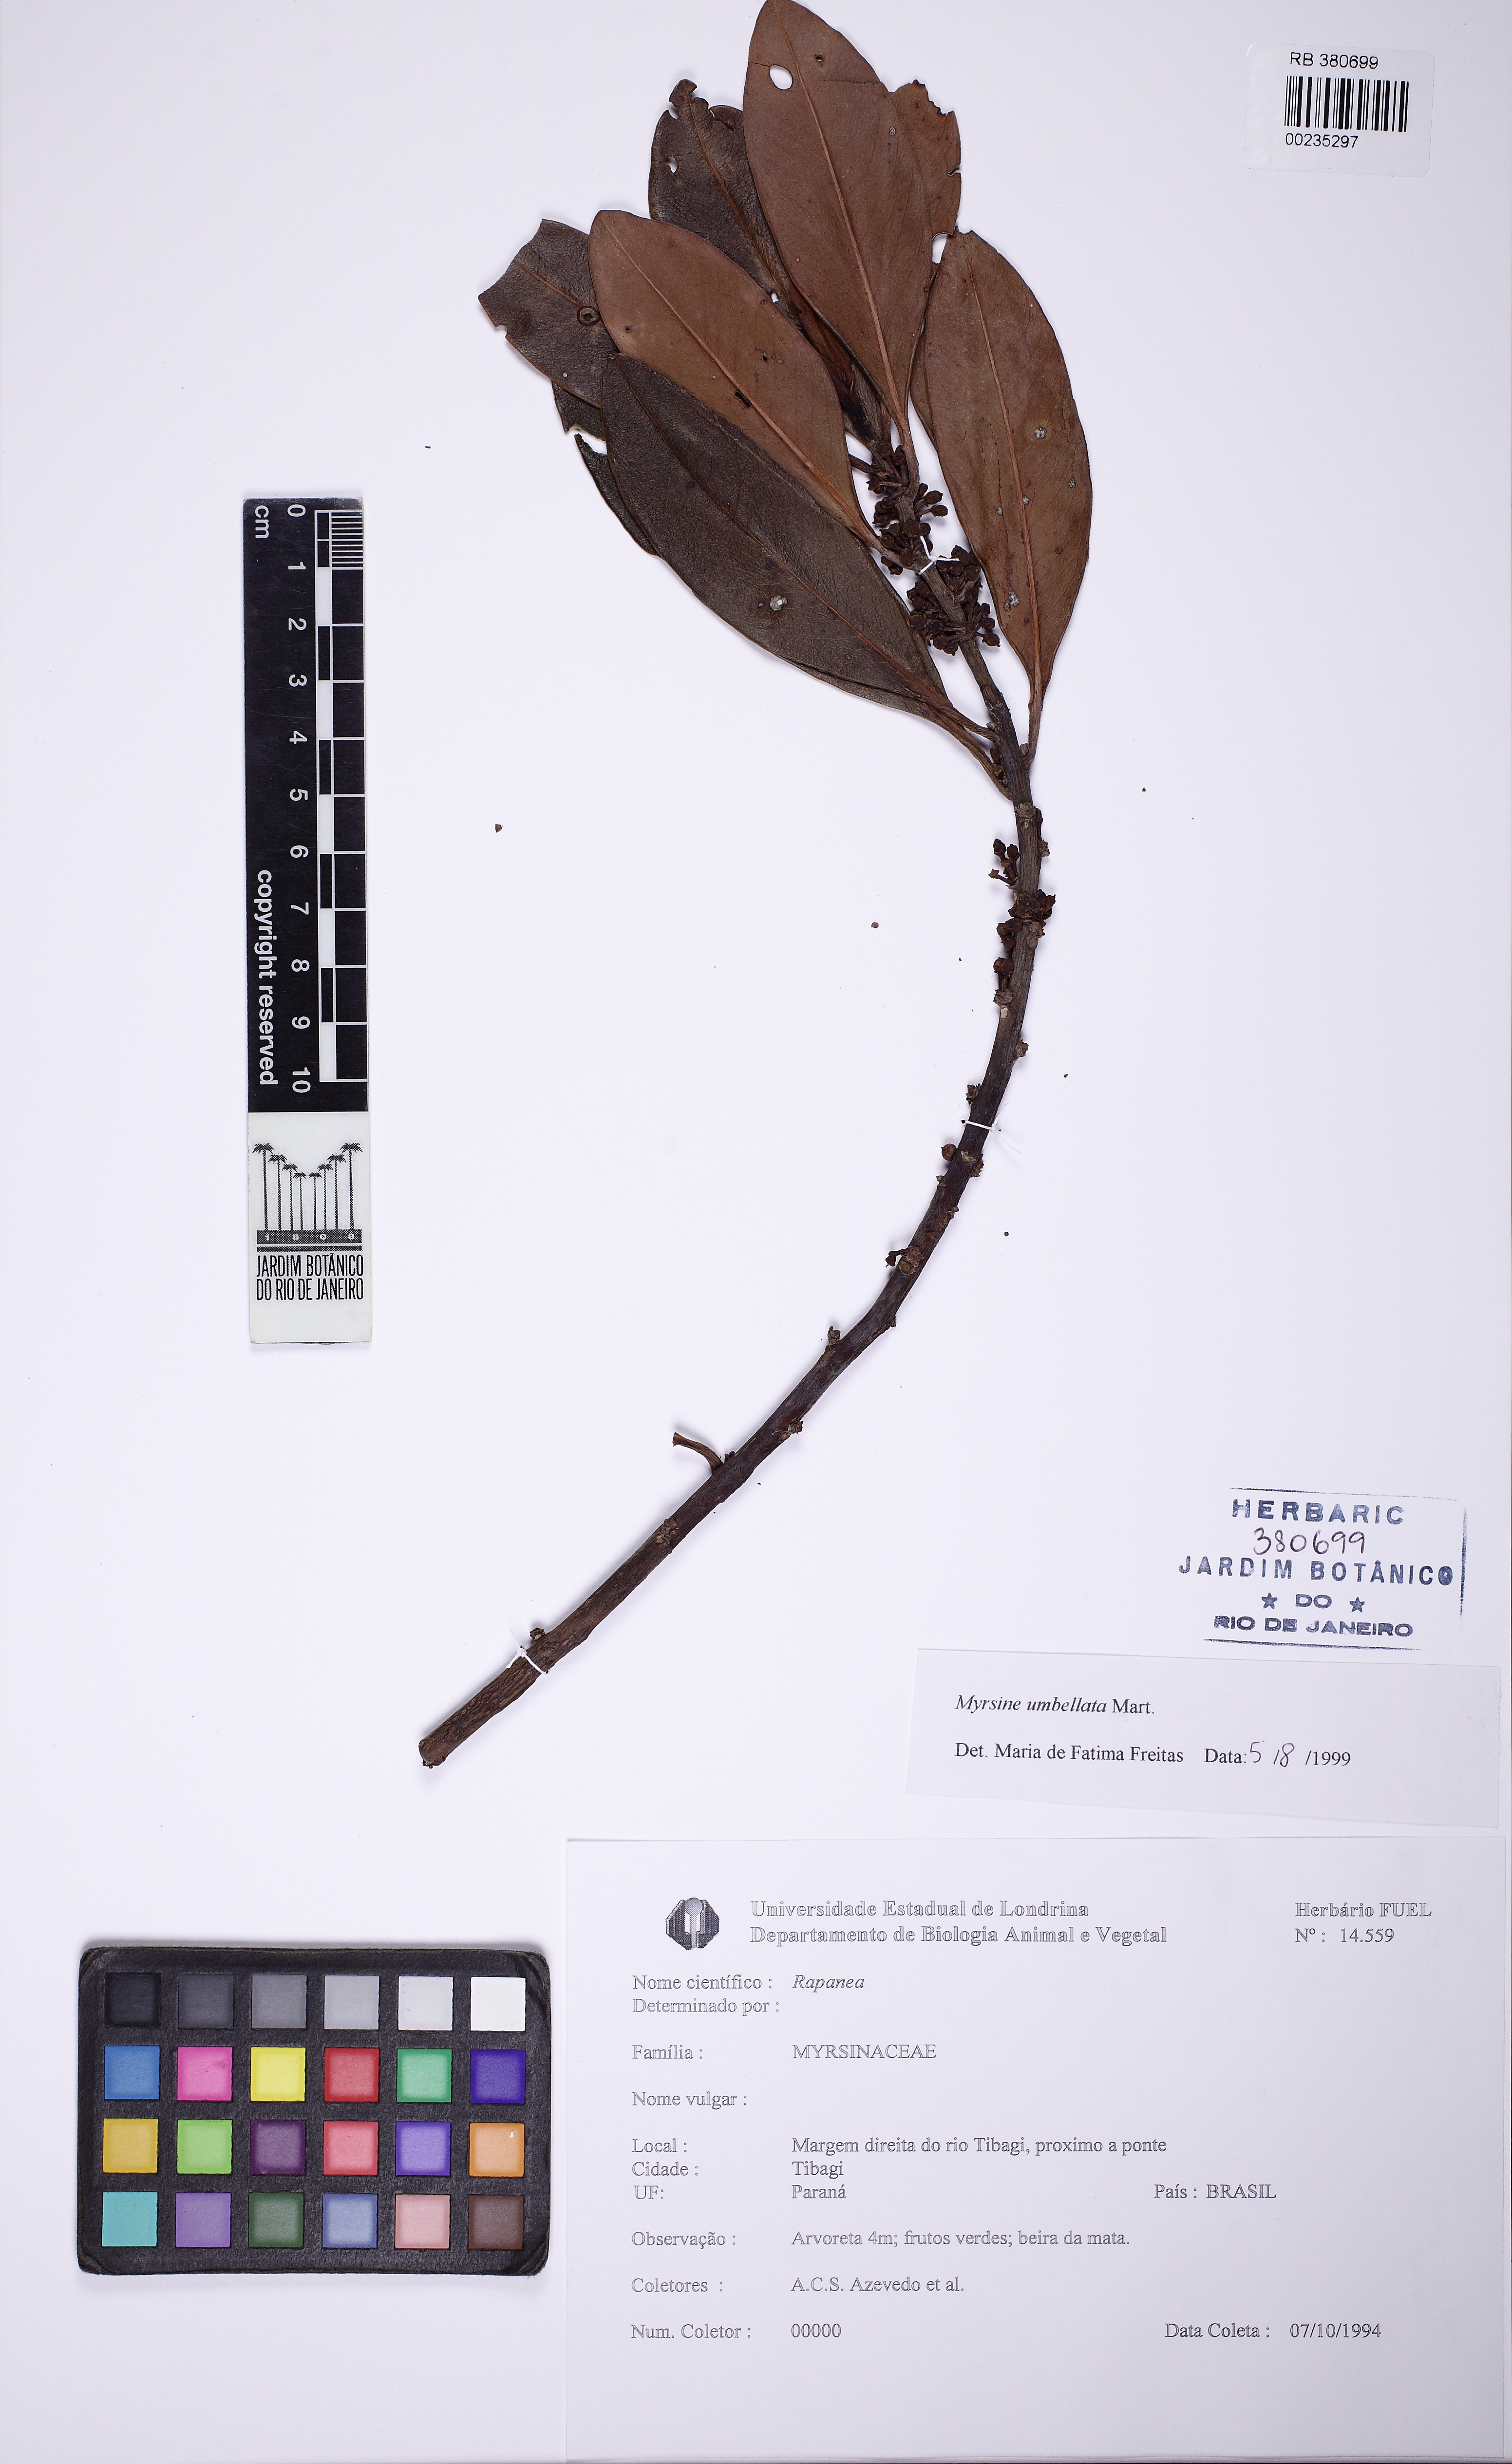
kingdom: Plantae
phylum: Tracheophyta
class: Magnoliopsida
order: Ericales
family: Primulaceae
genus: Myrsine
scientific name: Myrsine umbellata
